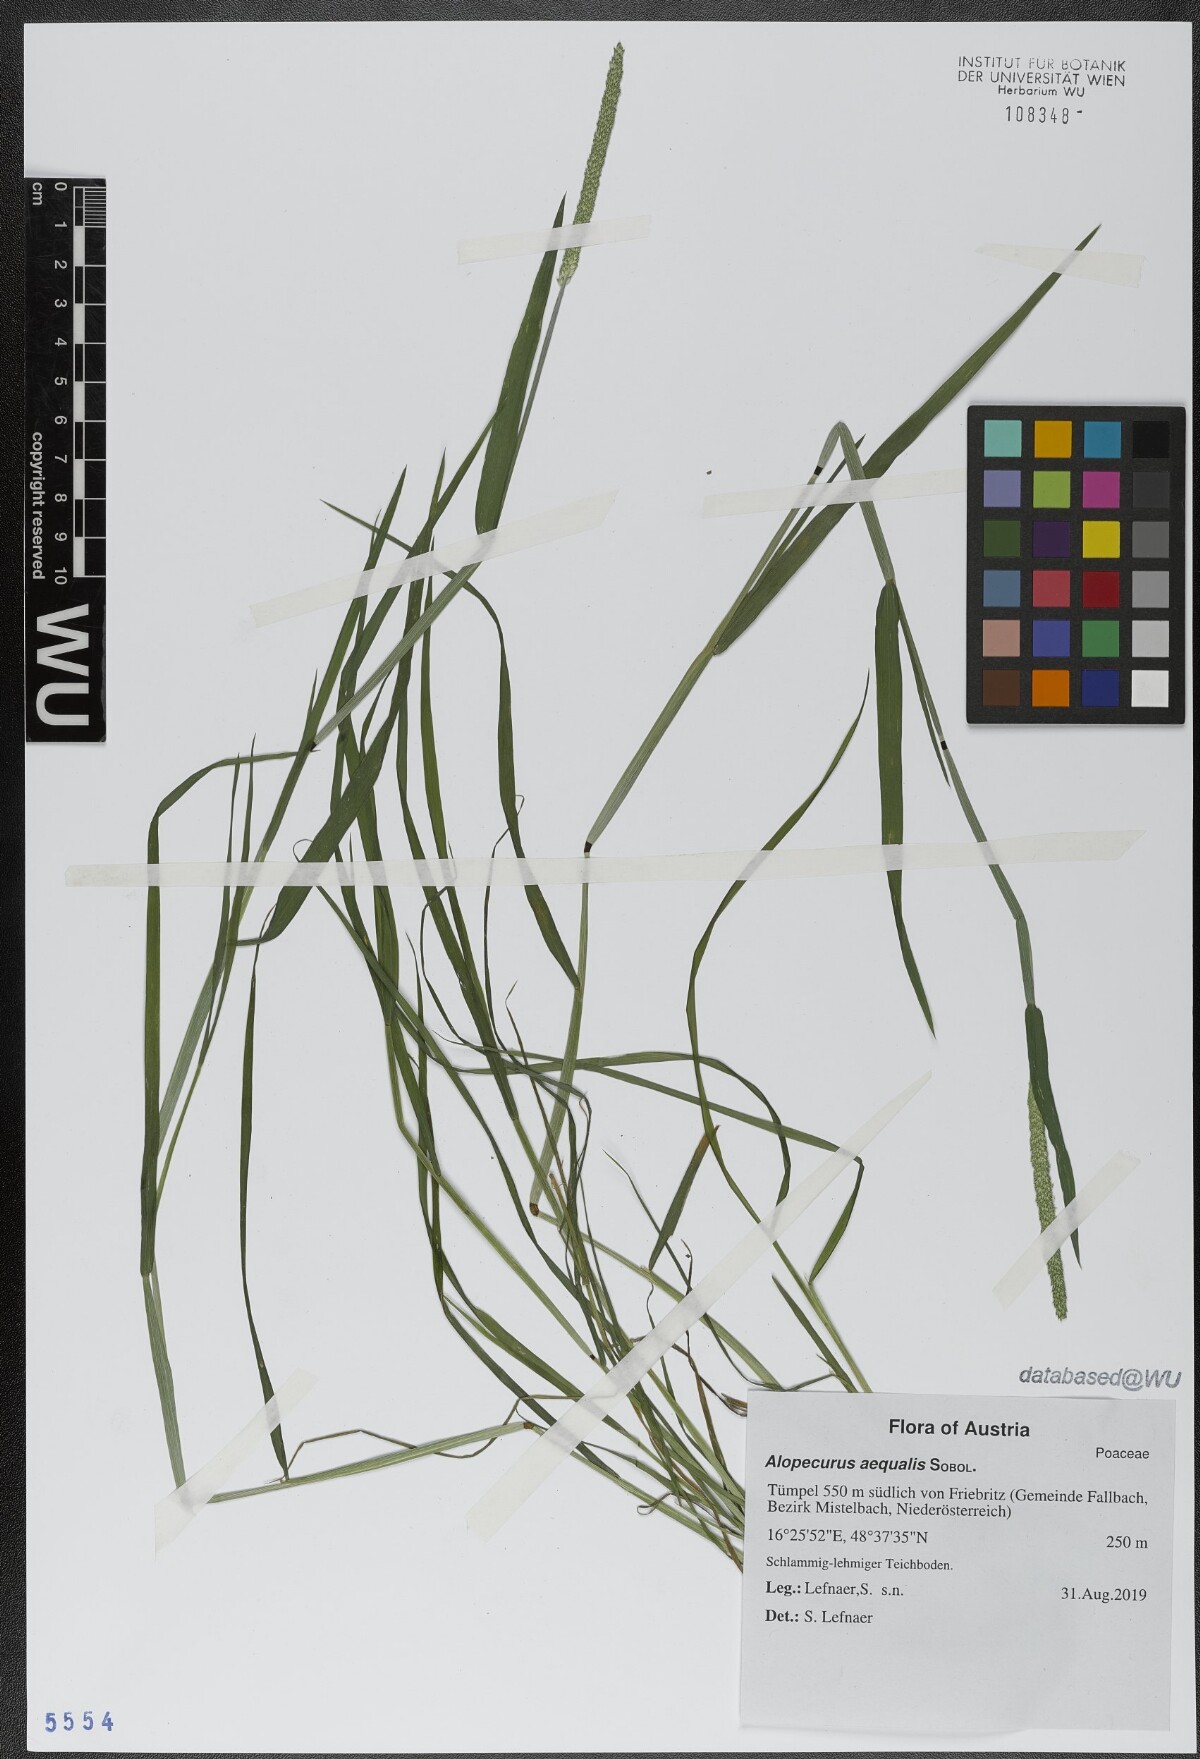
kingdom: Plantae
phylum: Tracheophyta
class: Liliopsida
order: Poales
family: Poaceae
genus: Alopecurus
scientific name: Alopecurus aequalis
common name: Orange foxtail
